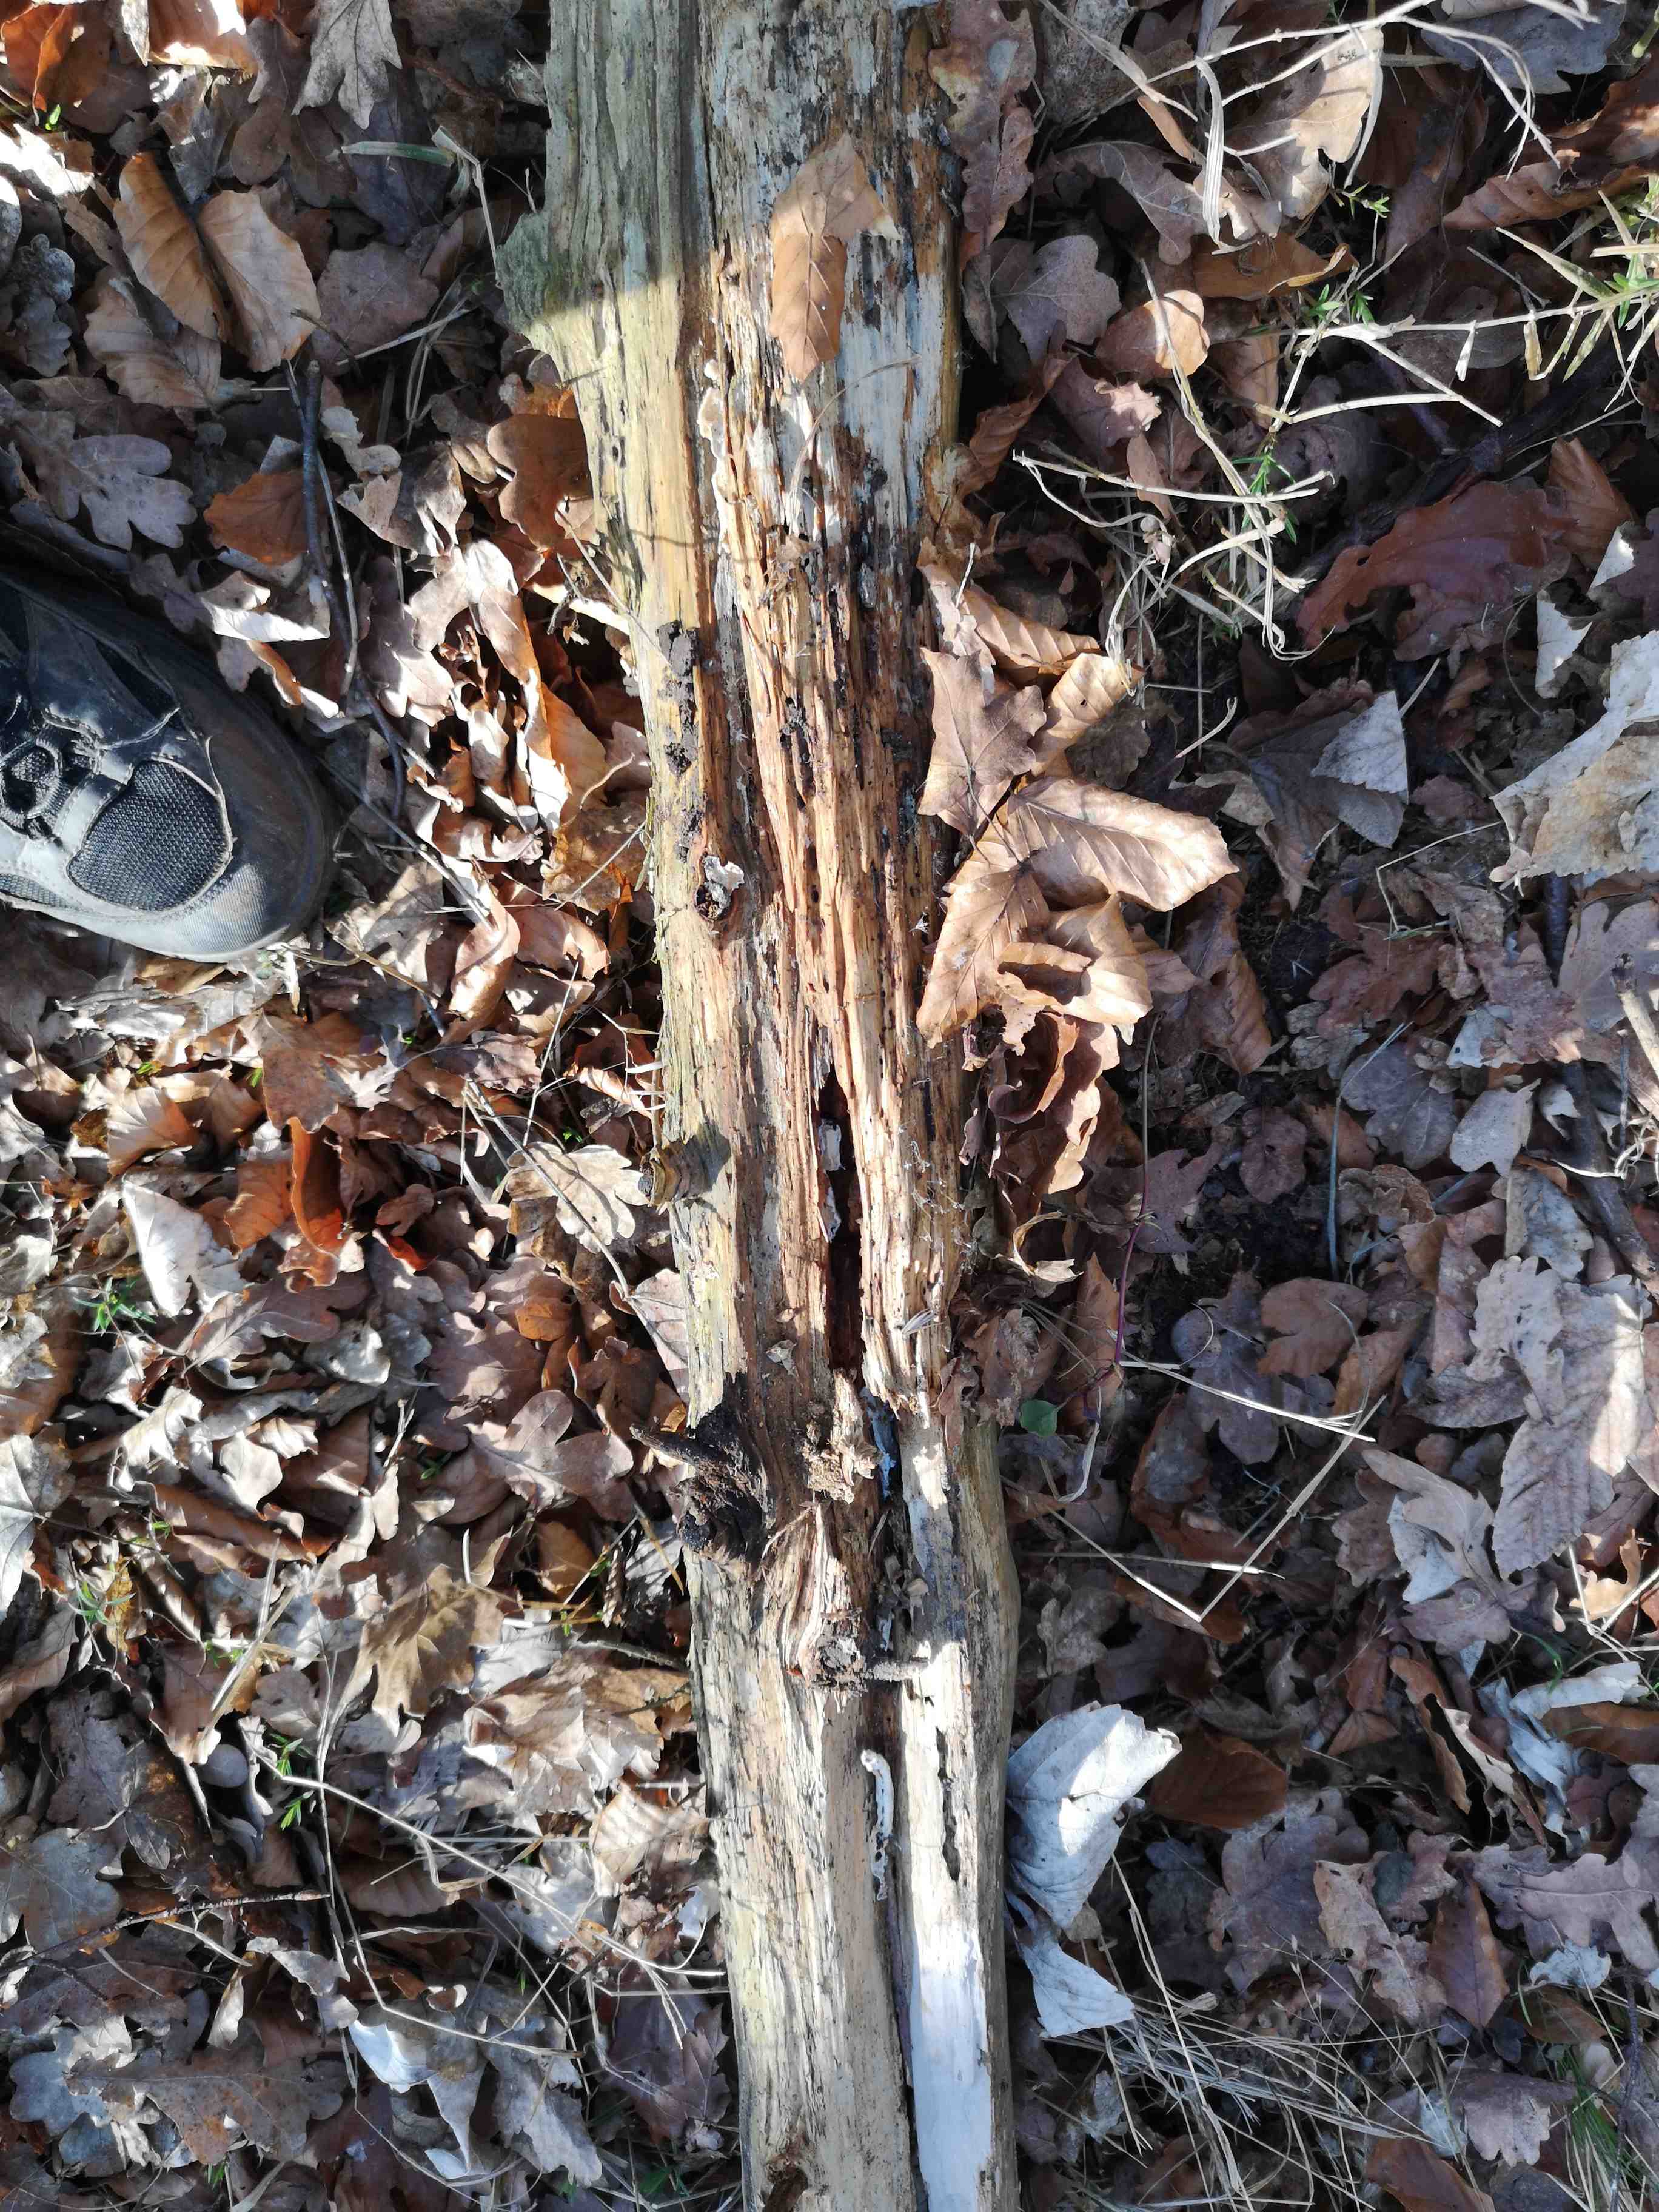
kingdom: Fungi
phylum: Basidiomycota
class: Agaricomycetes
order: Polyporales
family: Steccherinaceae
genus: Junghuhnia
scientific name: Junghuhnia
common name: skønporesvamp
